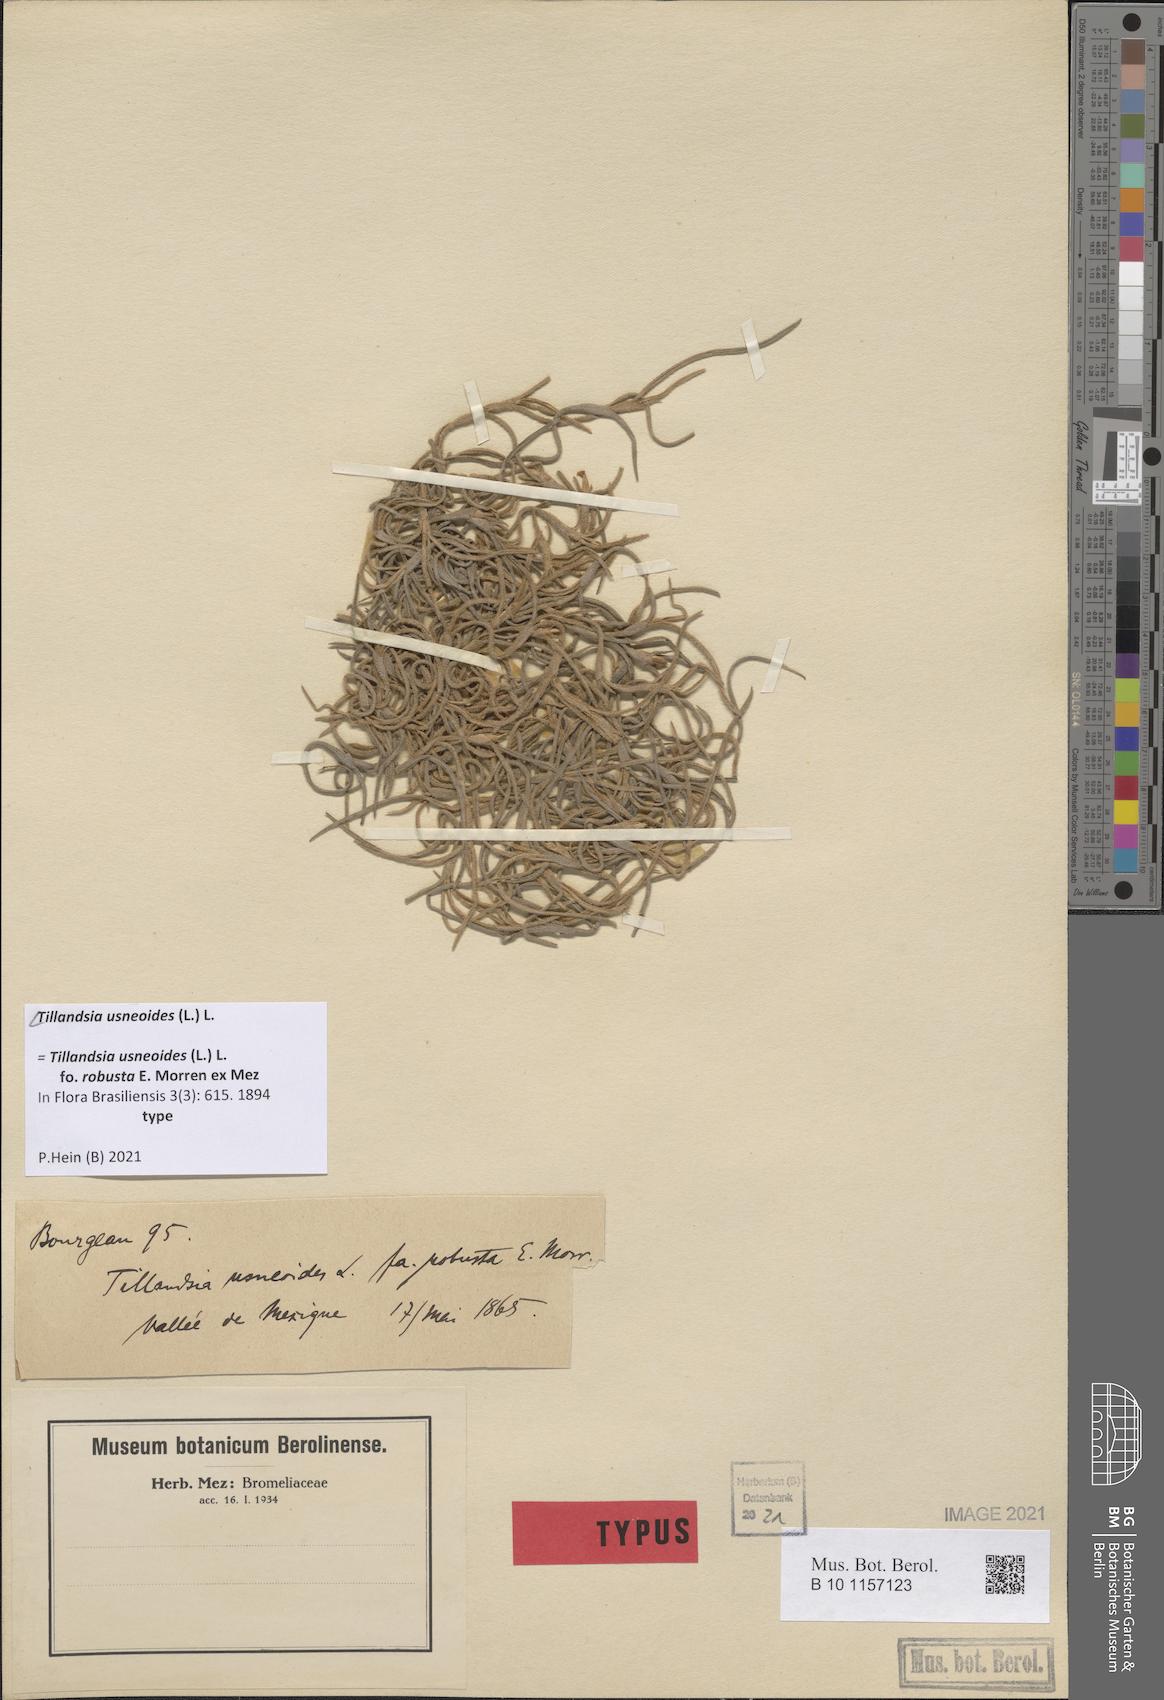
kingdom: Plantae
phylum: Tracheophyta
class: Liliopsida
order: Poales
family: Bromeliaceae
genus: Tillandsia
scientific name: Tillandsia usneoides
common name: Spanish moss
